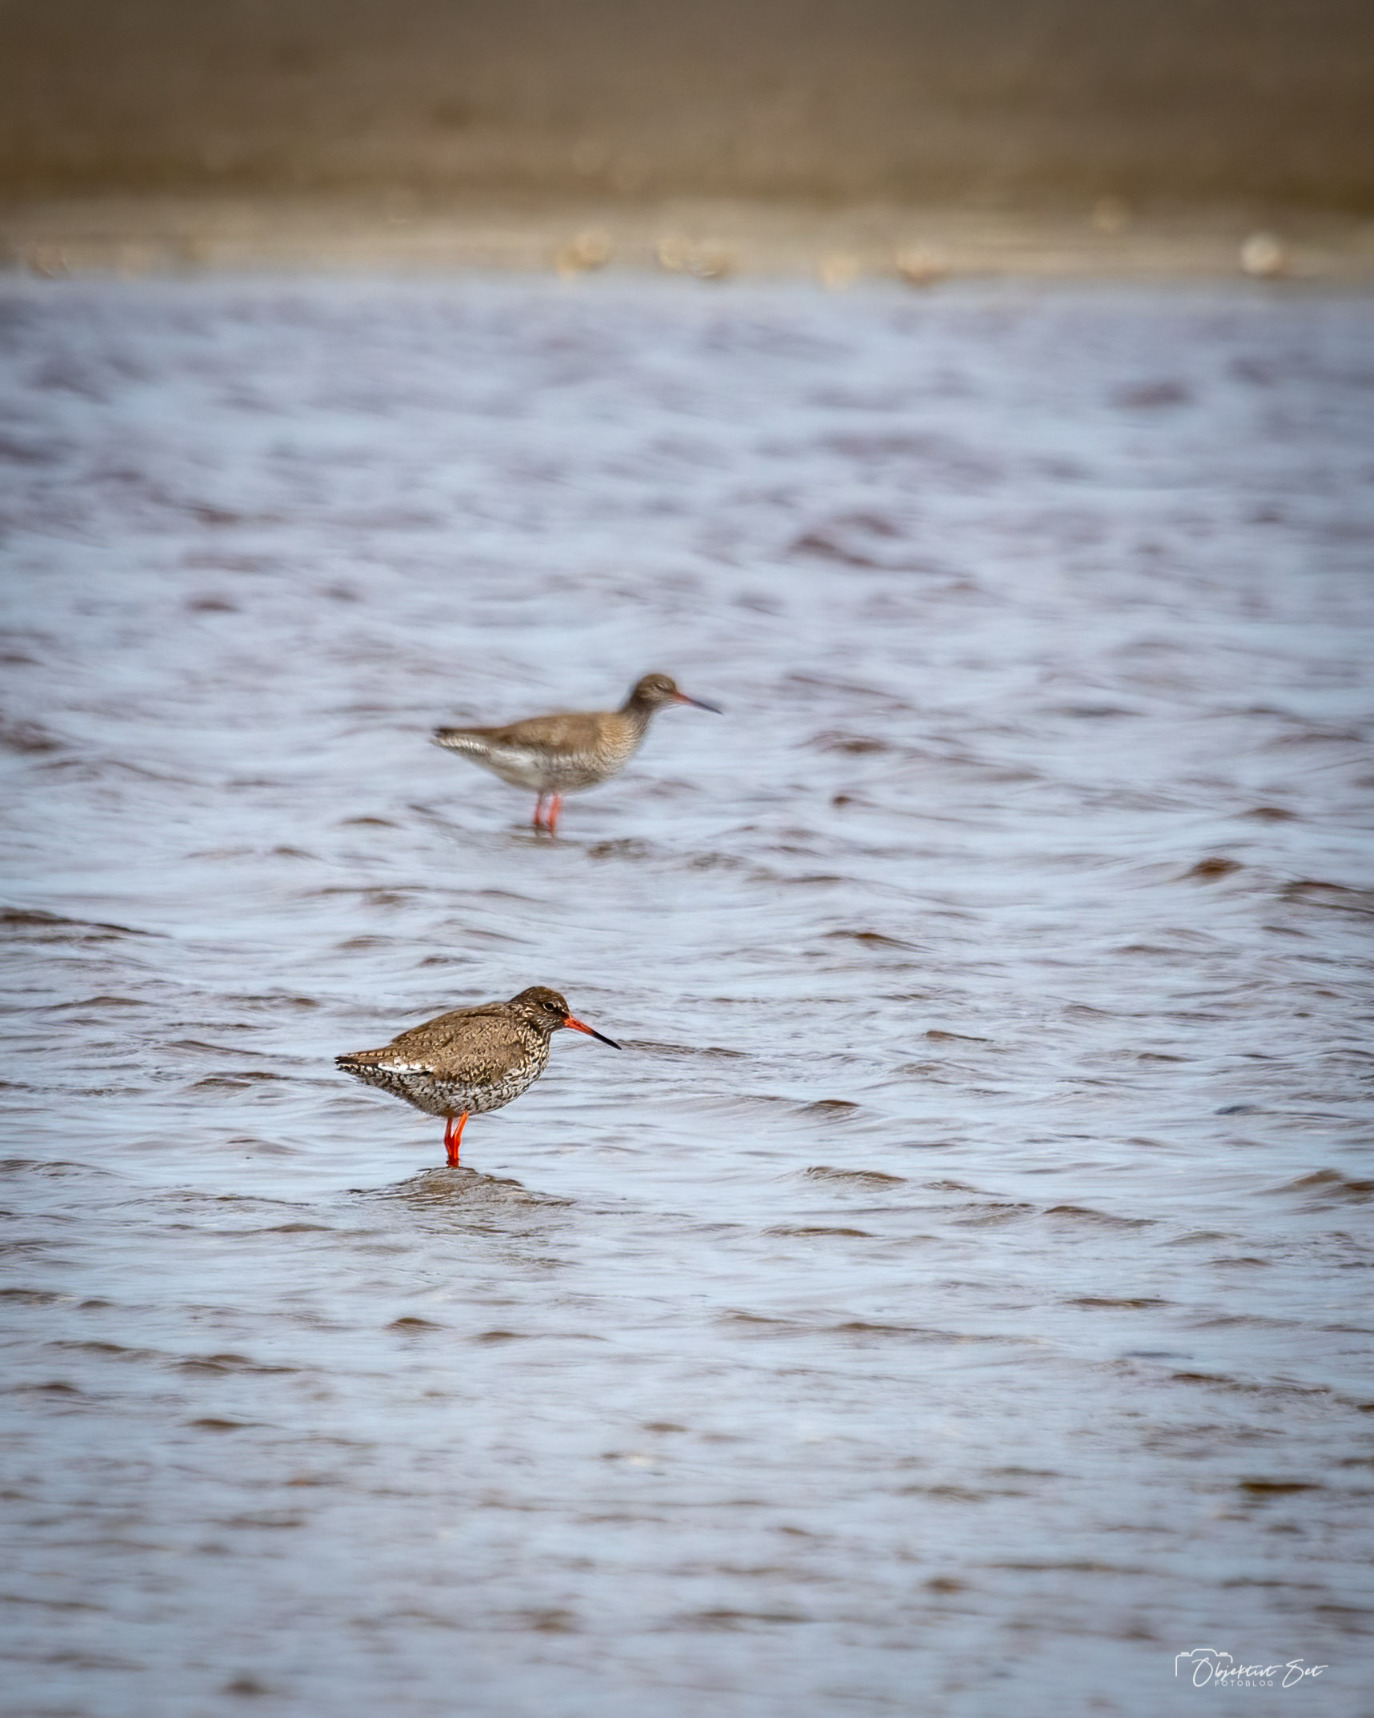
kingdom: Animalia
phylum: Chordata
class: Aves
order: Charadriiformes
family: Scolopacidae
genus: Tringa
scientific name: Tringa totanus
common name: Rødben
